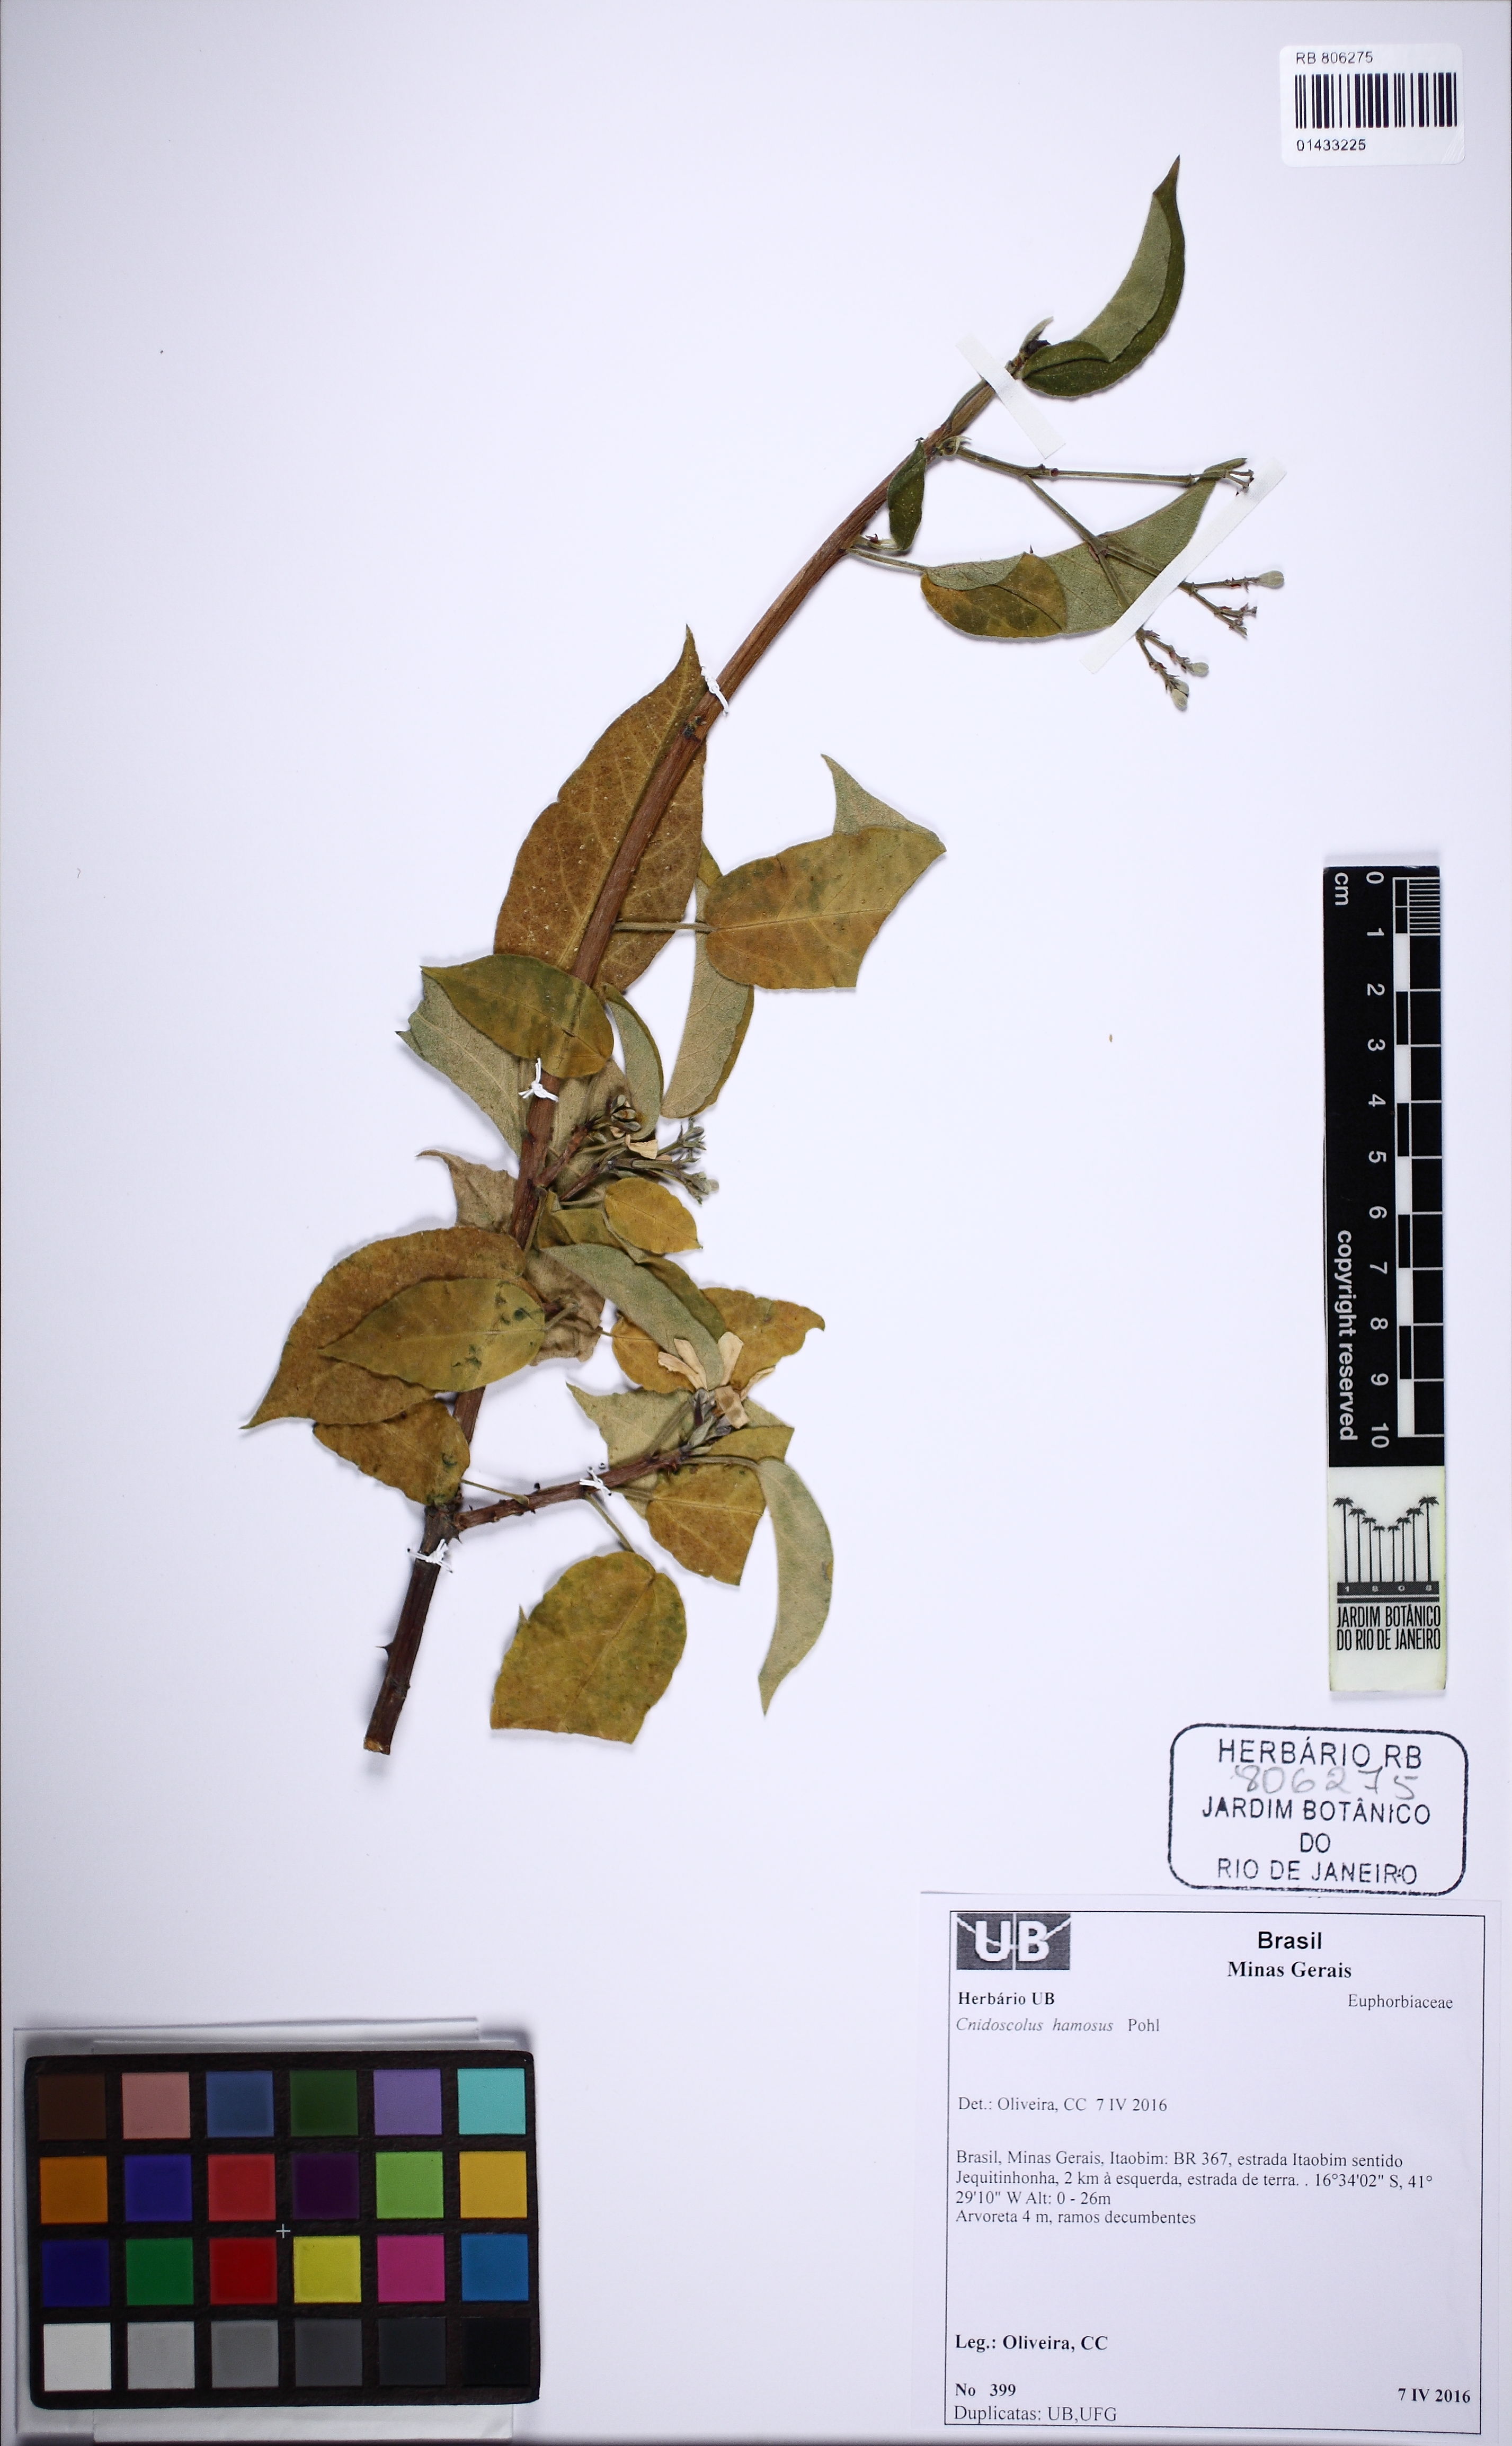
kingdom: Plantae
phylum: Tracheophyta
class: Magnoliopsida
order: Malpighiales
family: Euphorbiaceae
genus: Cnidoscolus
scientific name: Cnidoscolus hamosus
